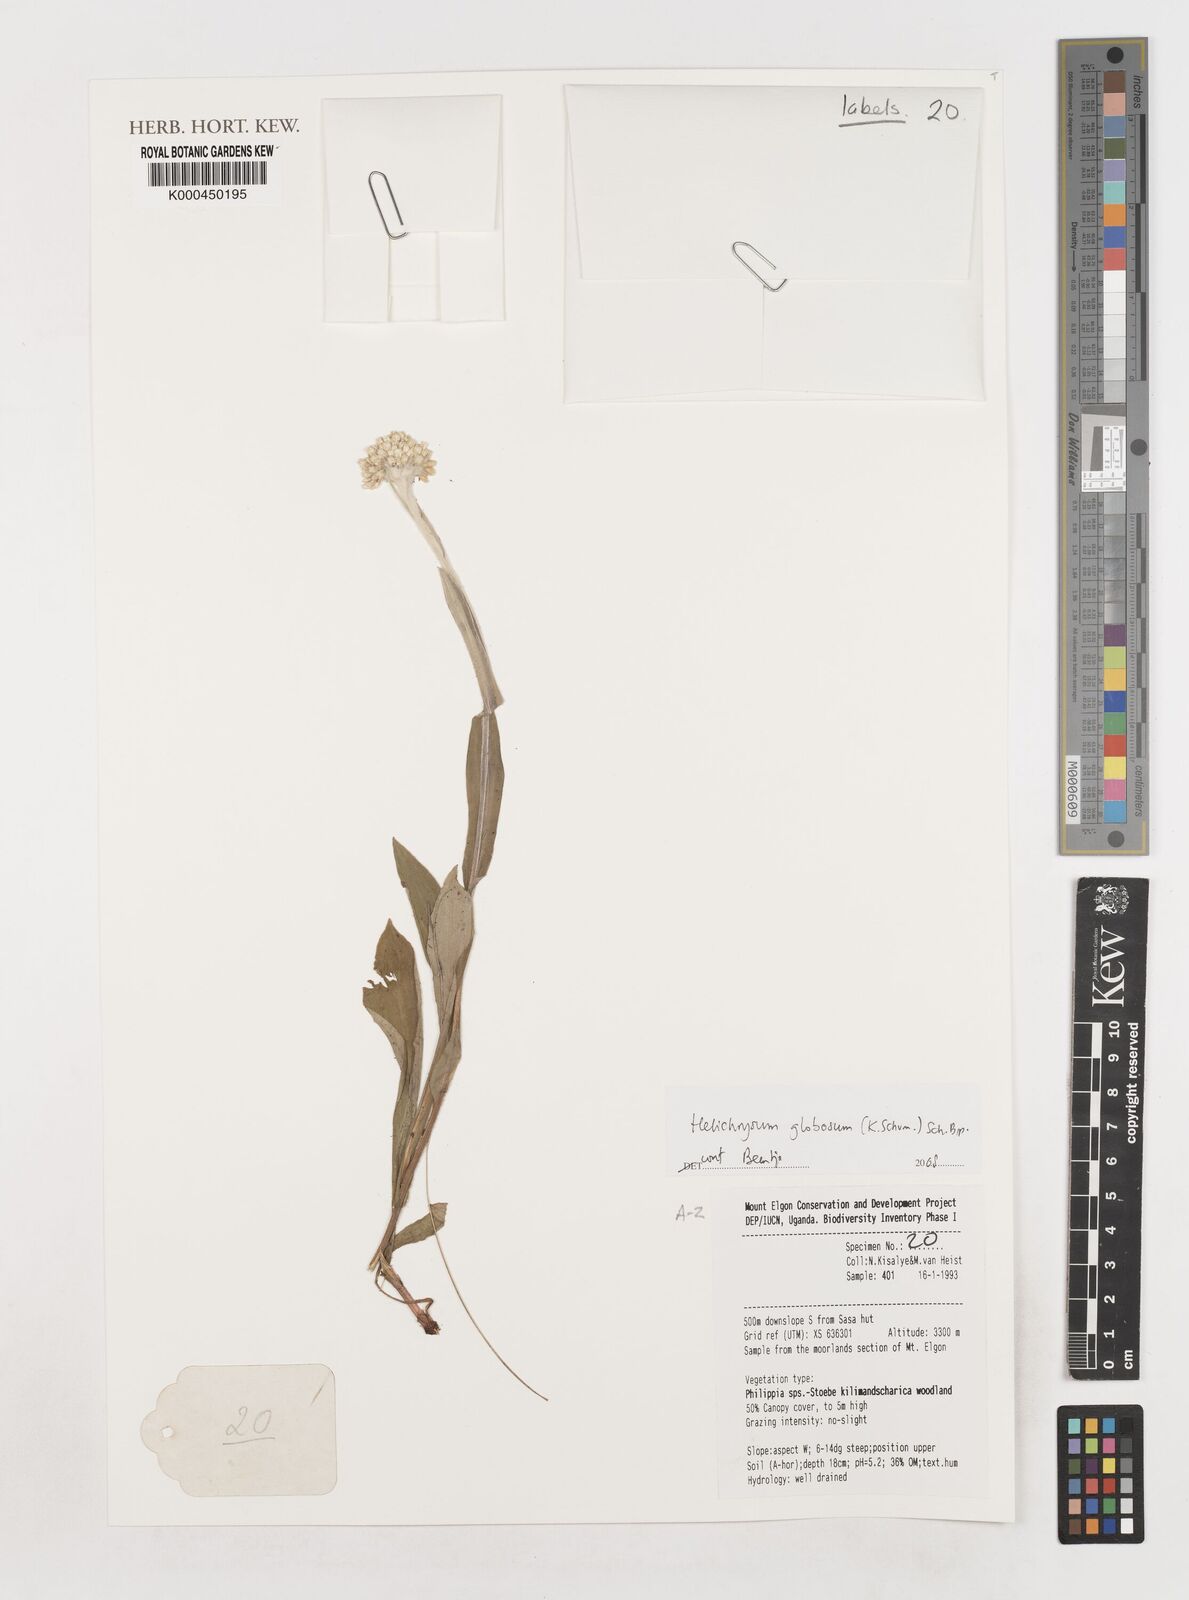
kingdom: Plantae
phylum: Tracheophyta
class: Magnoliopsida
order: Asterales
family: Asteraceae
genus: Helichrysum
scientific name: Helichrysum globosum
